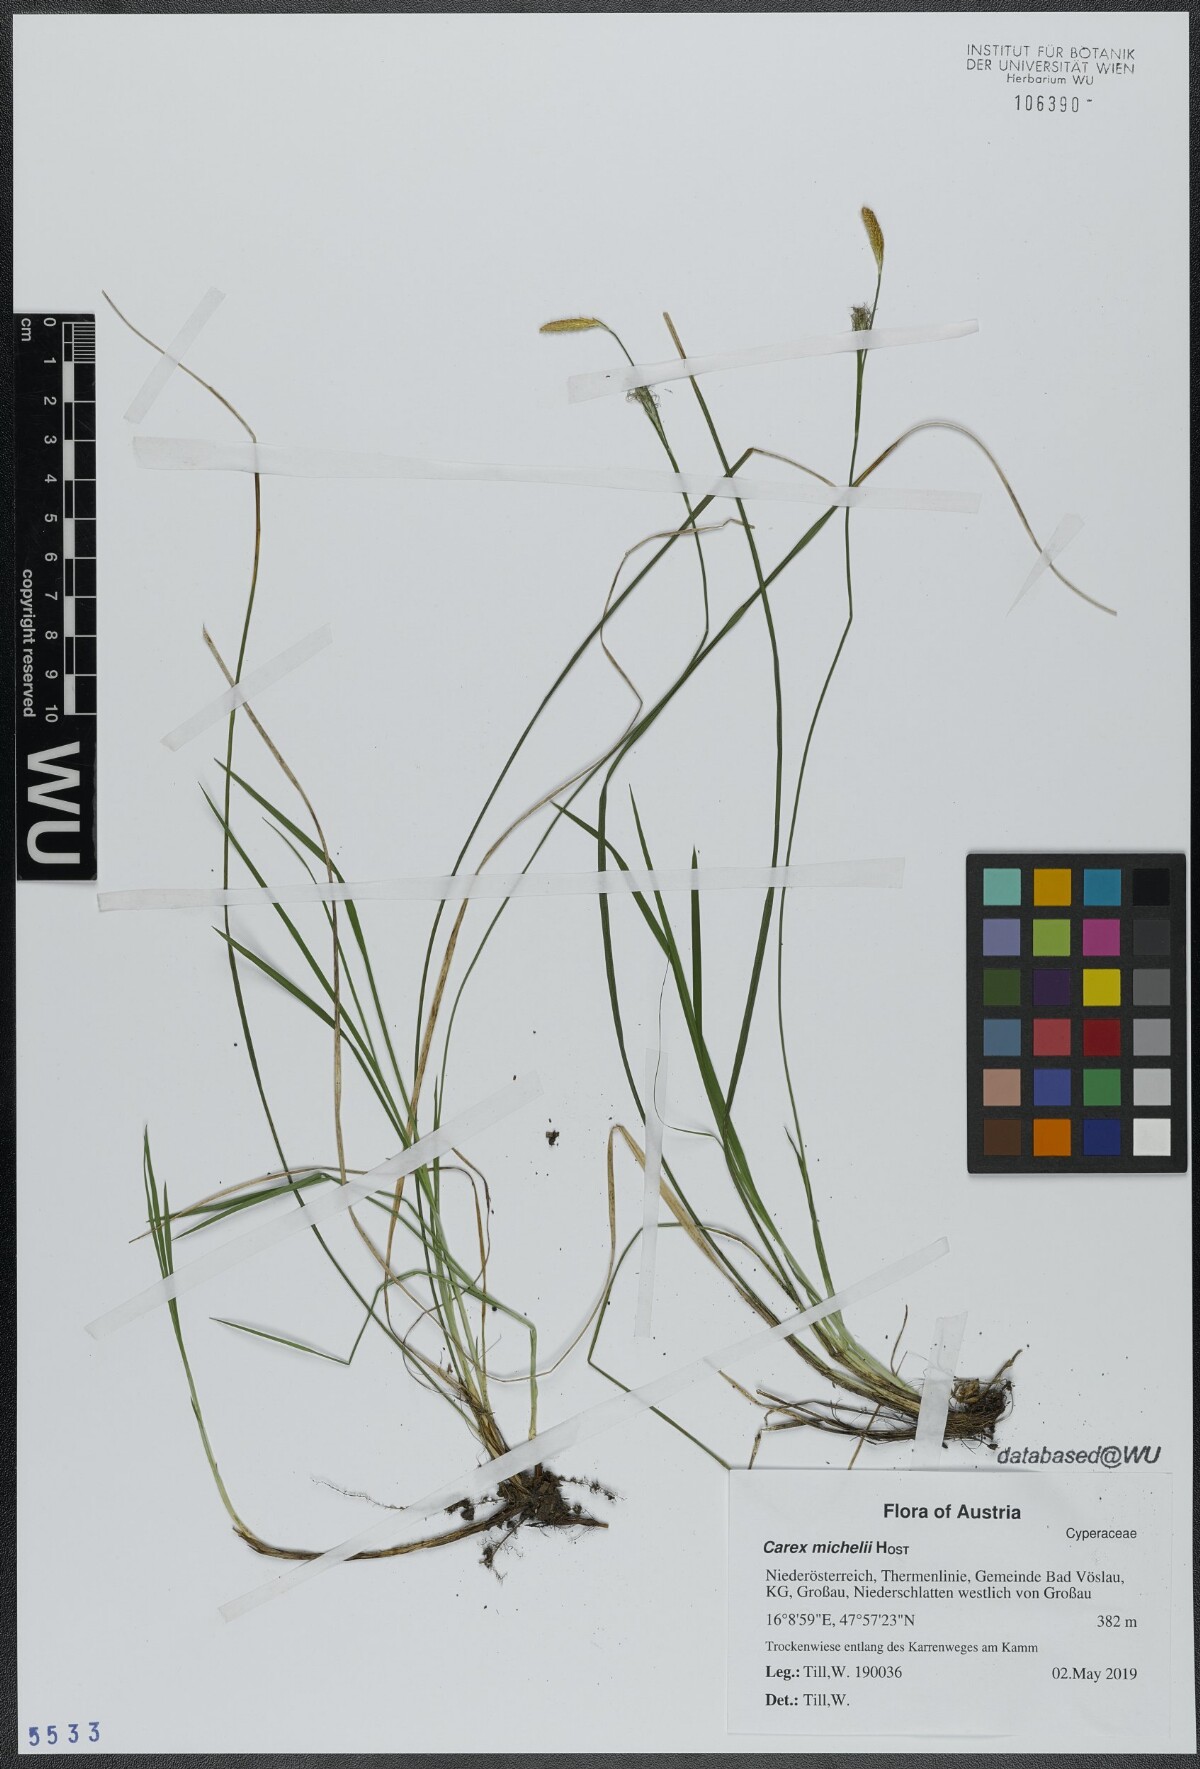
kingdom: Plantae
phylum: Tracheophyta
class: Liliopsida
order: Poales
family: Cyperaceae
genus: Carex
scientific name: Carex michelii
